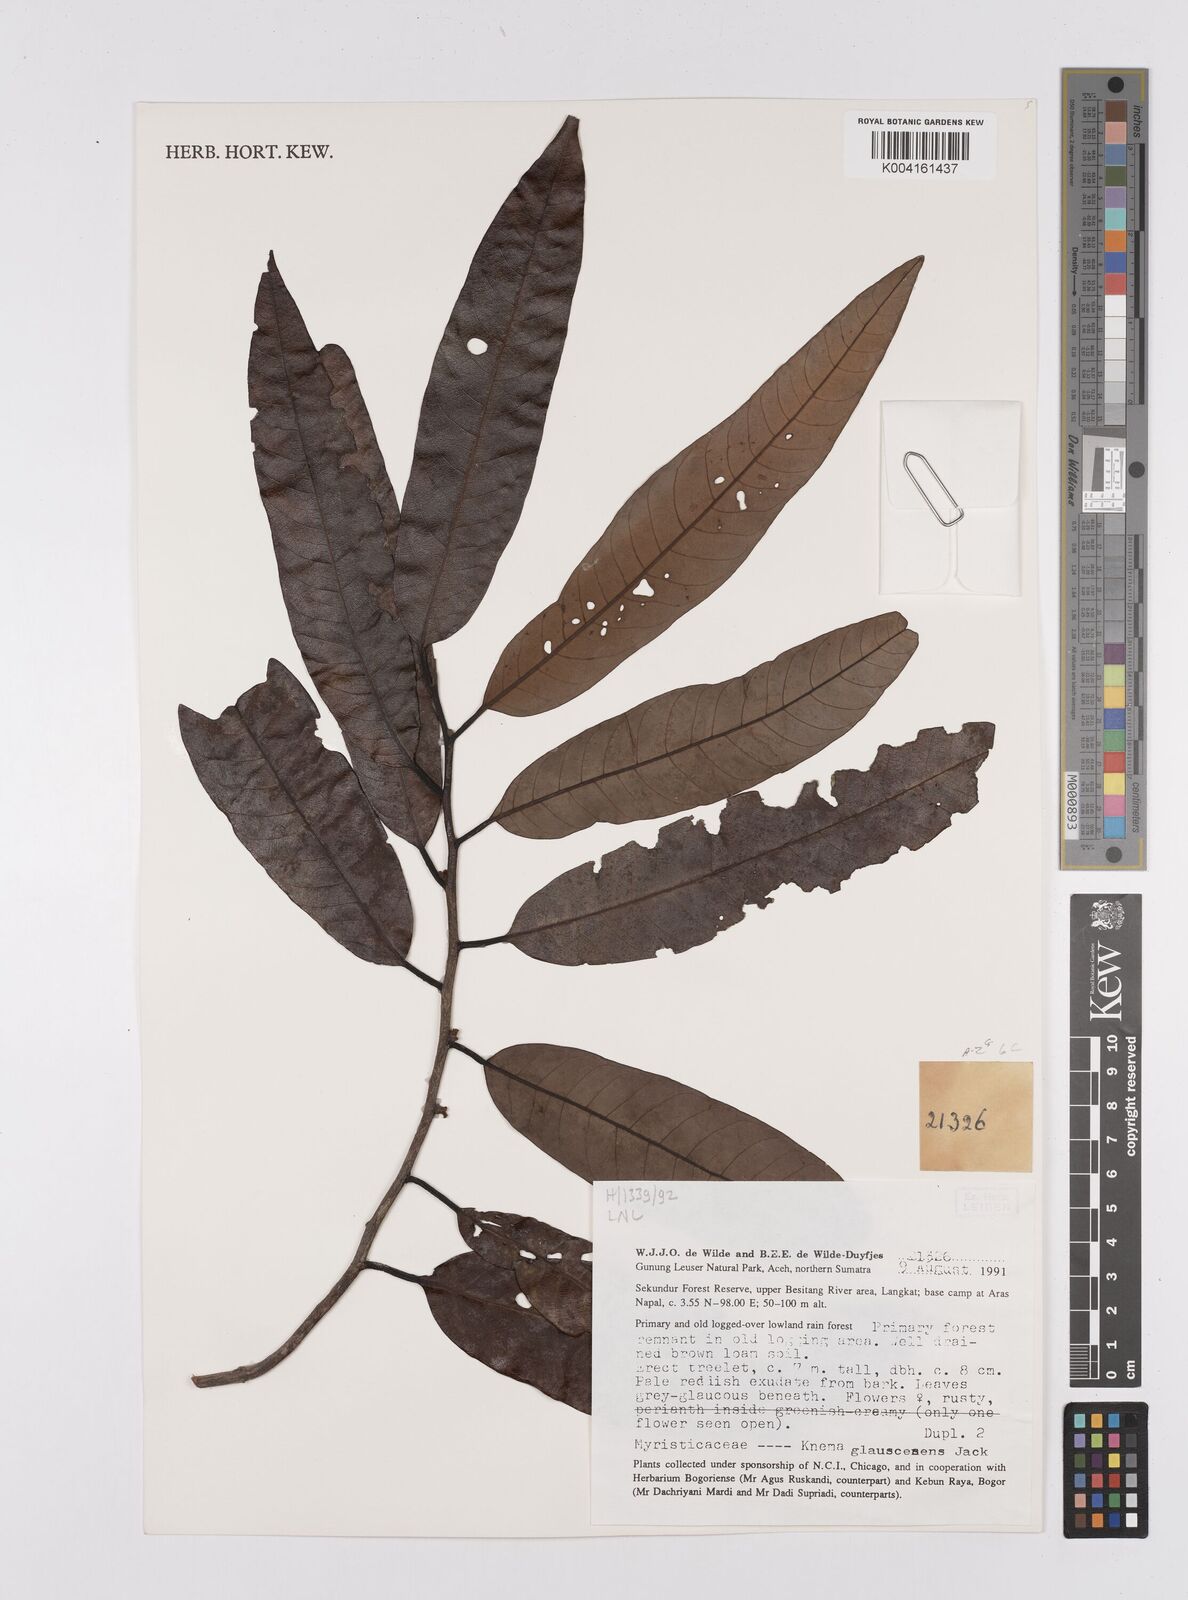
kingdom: Plantae
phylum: Tracheophyta
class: Magnoliopsida
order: Magnoliales
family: Myristicaceae
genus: Knema
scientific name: Knema
